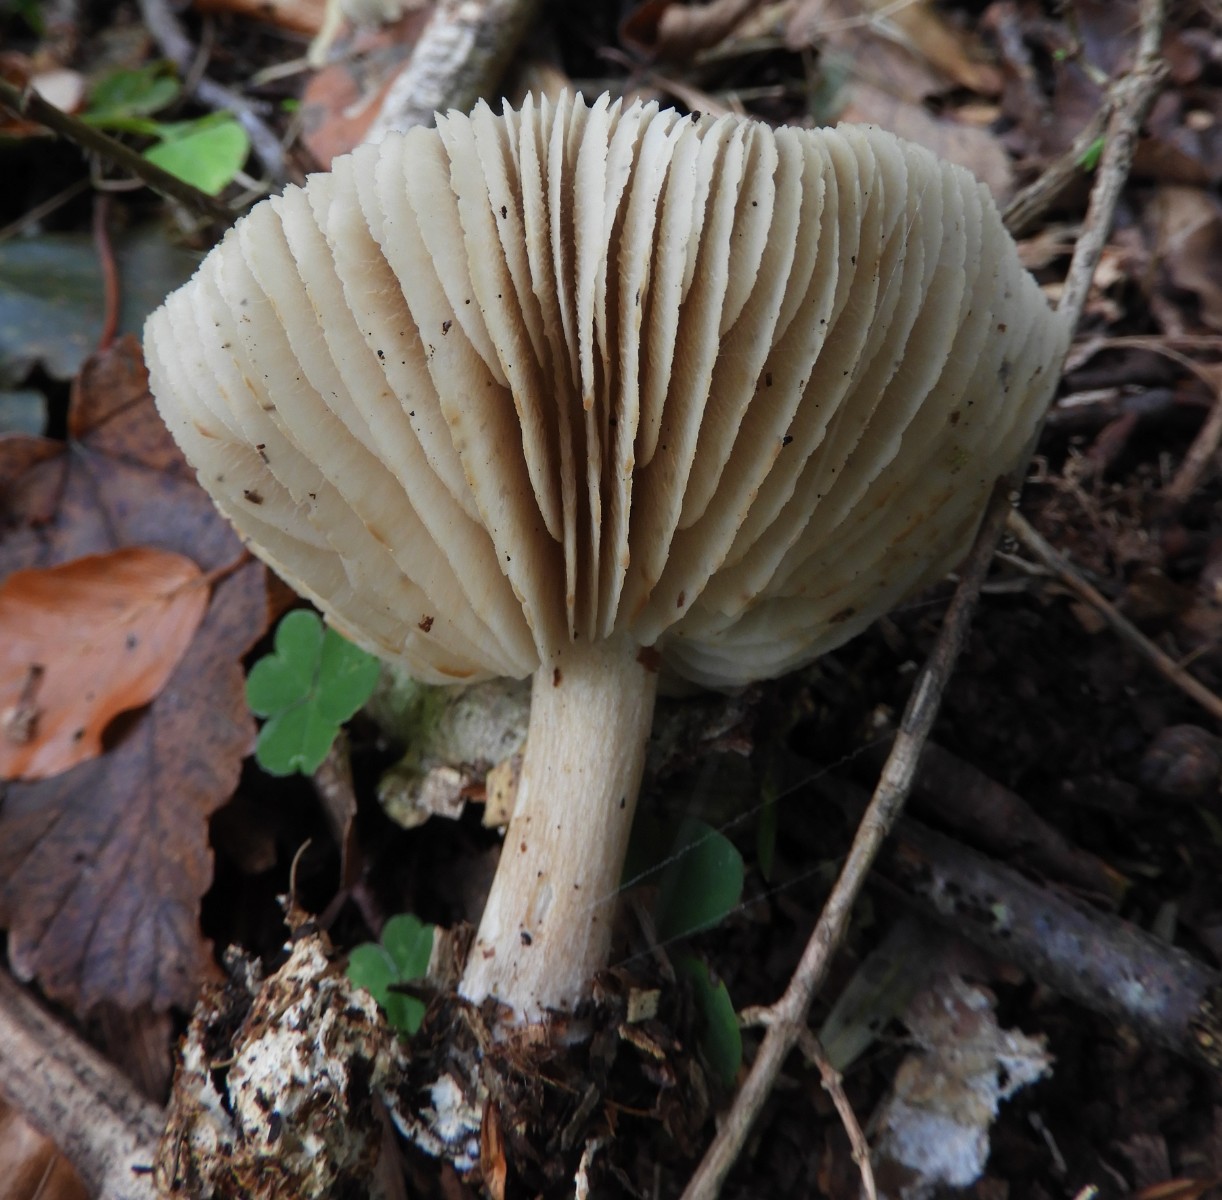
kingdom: Fungi
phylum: Basidiomycota
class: Agaricomycetes
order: Agaricales
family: Tricholomataceae
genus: Megacollybia
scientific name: Megacollybia platyphylla
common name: bredbladet væbnerhat
